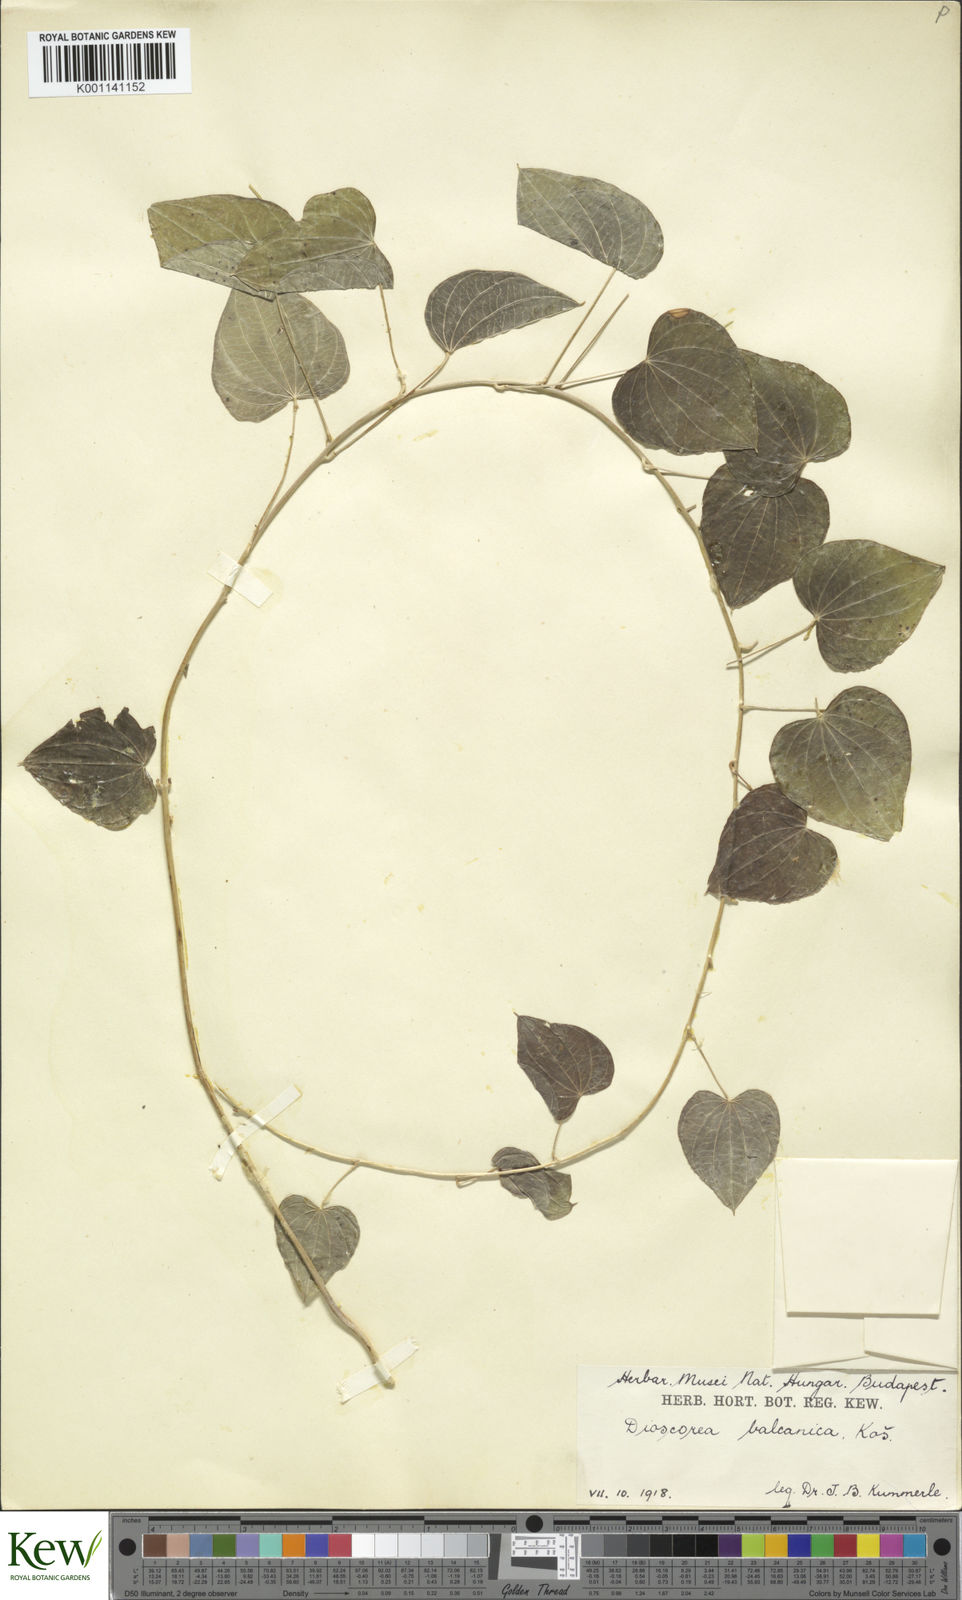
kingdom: Plantae
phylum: Tracheophyta
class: Liliopsida
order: Dioscoreales
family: Dioscoreaceae
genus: Dioscorea
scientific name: Dioscorea
